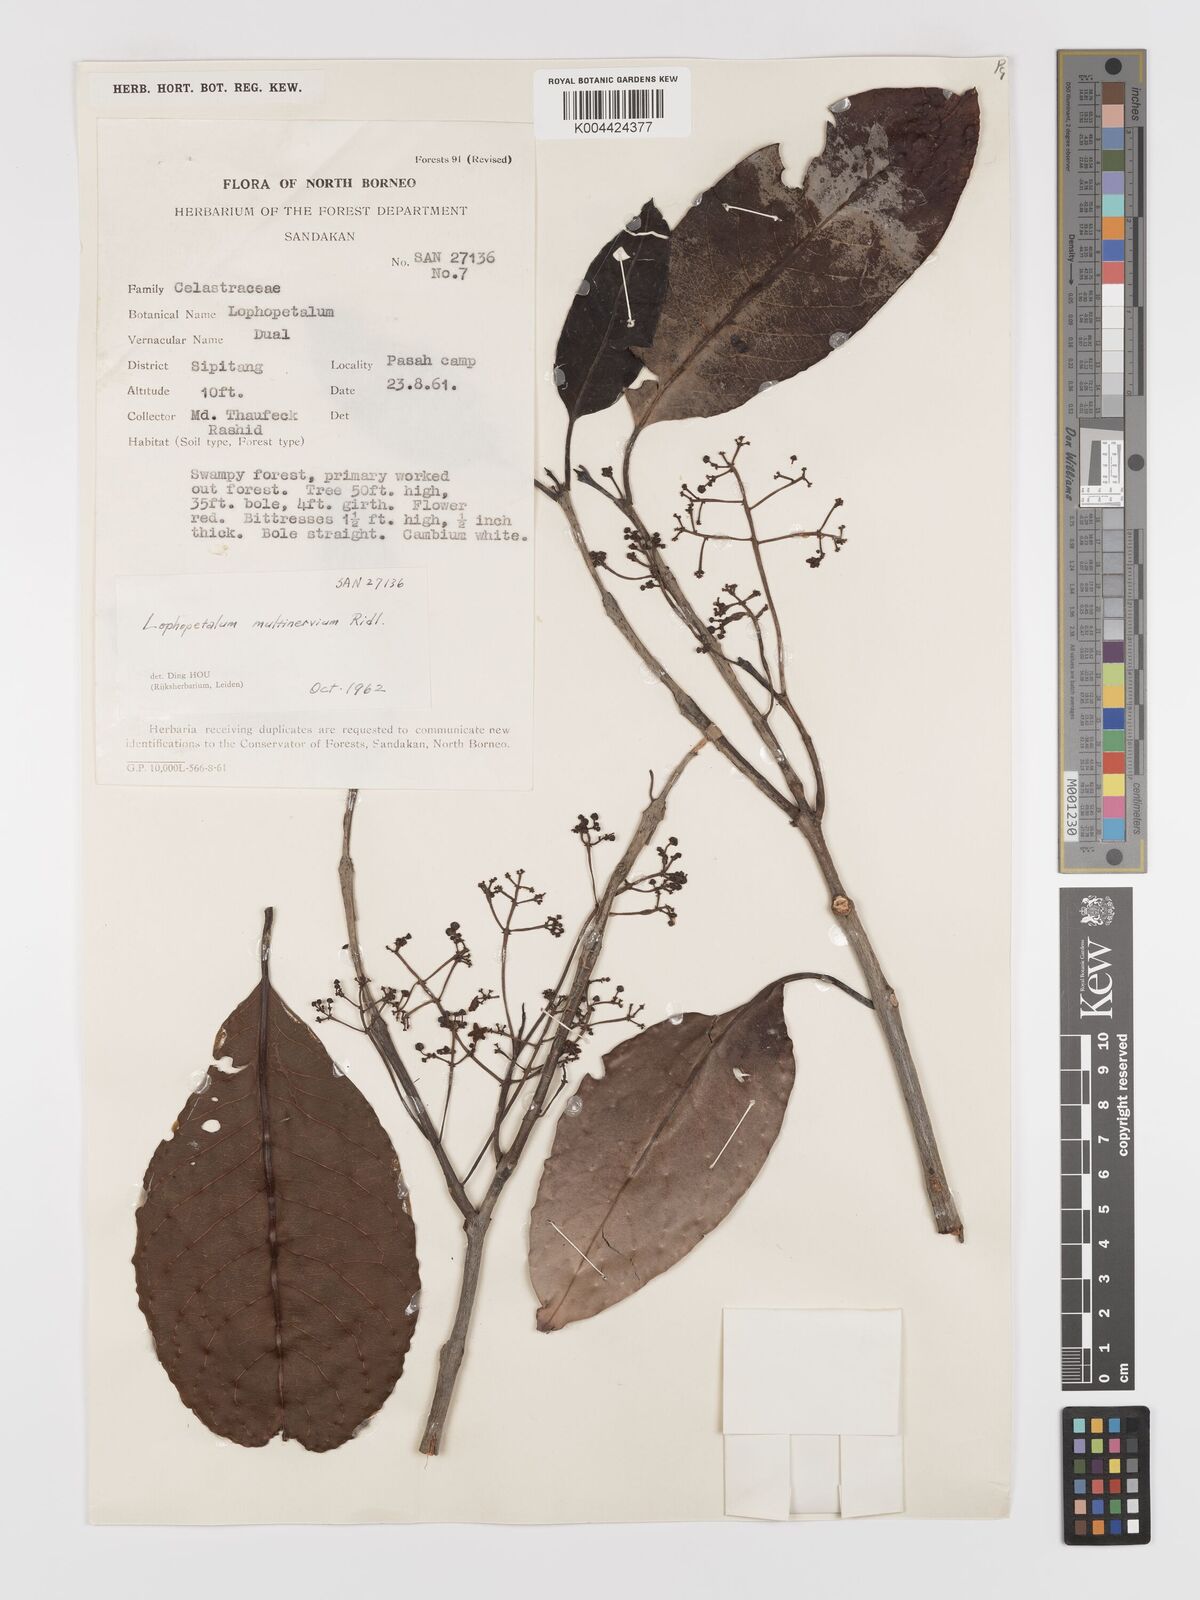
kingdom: Plantae
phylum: Tracheophyta
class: Magnoliopsida
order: Celastrales
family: Celastraceae
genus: Lophopetalum
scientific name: Lophopetalum multinervium
